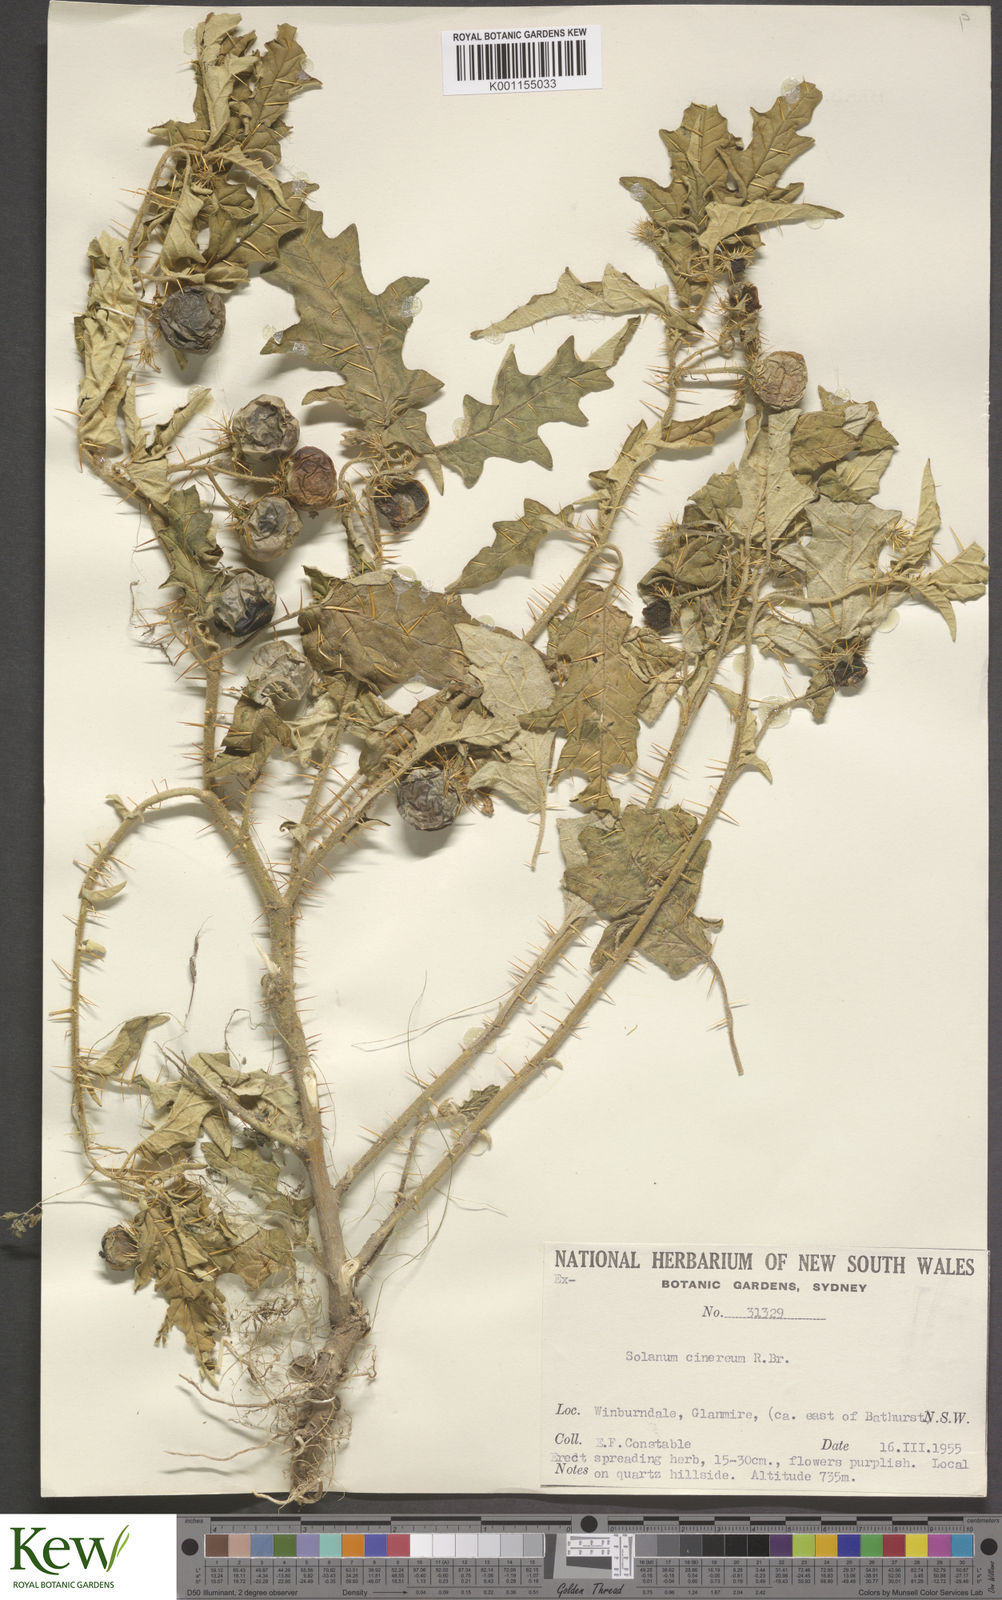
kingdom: Plantae
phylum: Tracheophyta
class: Magnoliopsida
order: Solanales
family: Solanaceae
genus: Solanum
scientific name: Solanum cinereum
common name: Narrawa-bur
